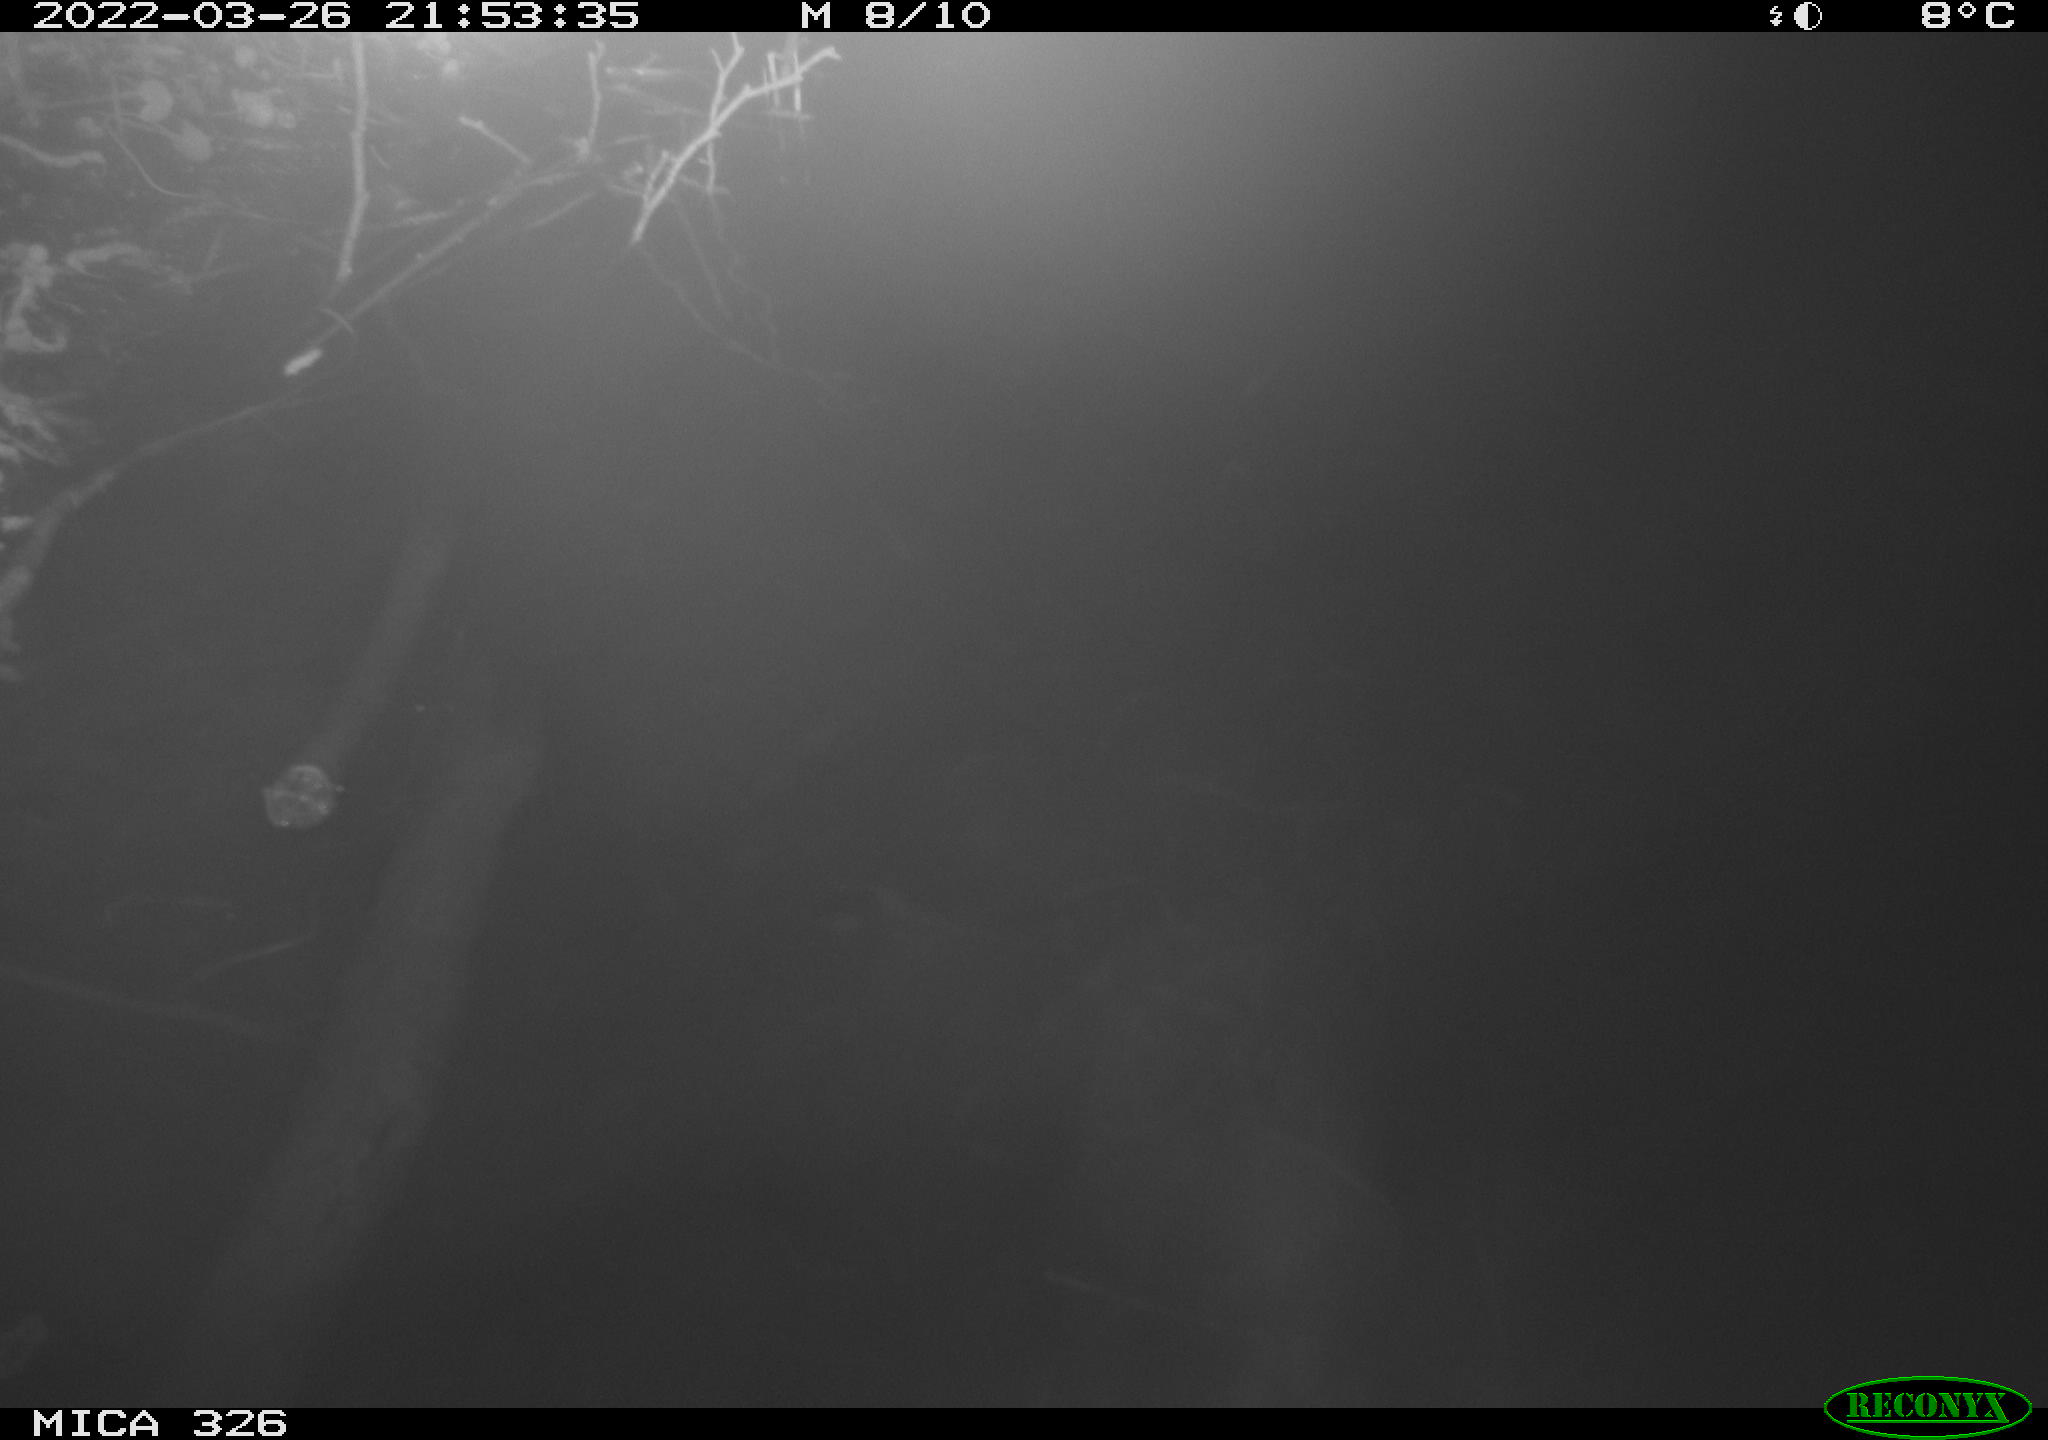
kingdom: Animalia
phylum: Chordata
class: Mammalia
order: Rodentia
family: Muridae
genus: Rattus
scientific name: Rattus norvegicus
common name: Brown rat
